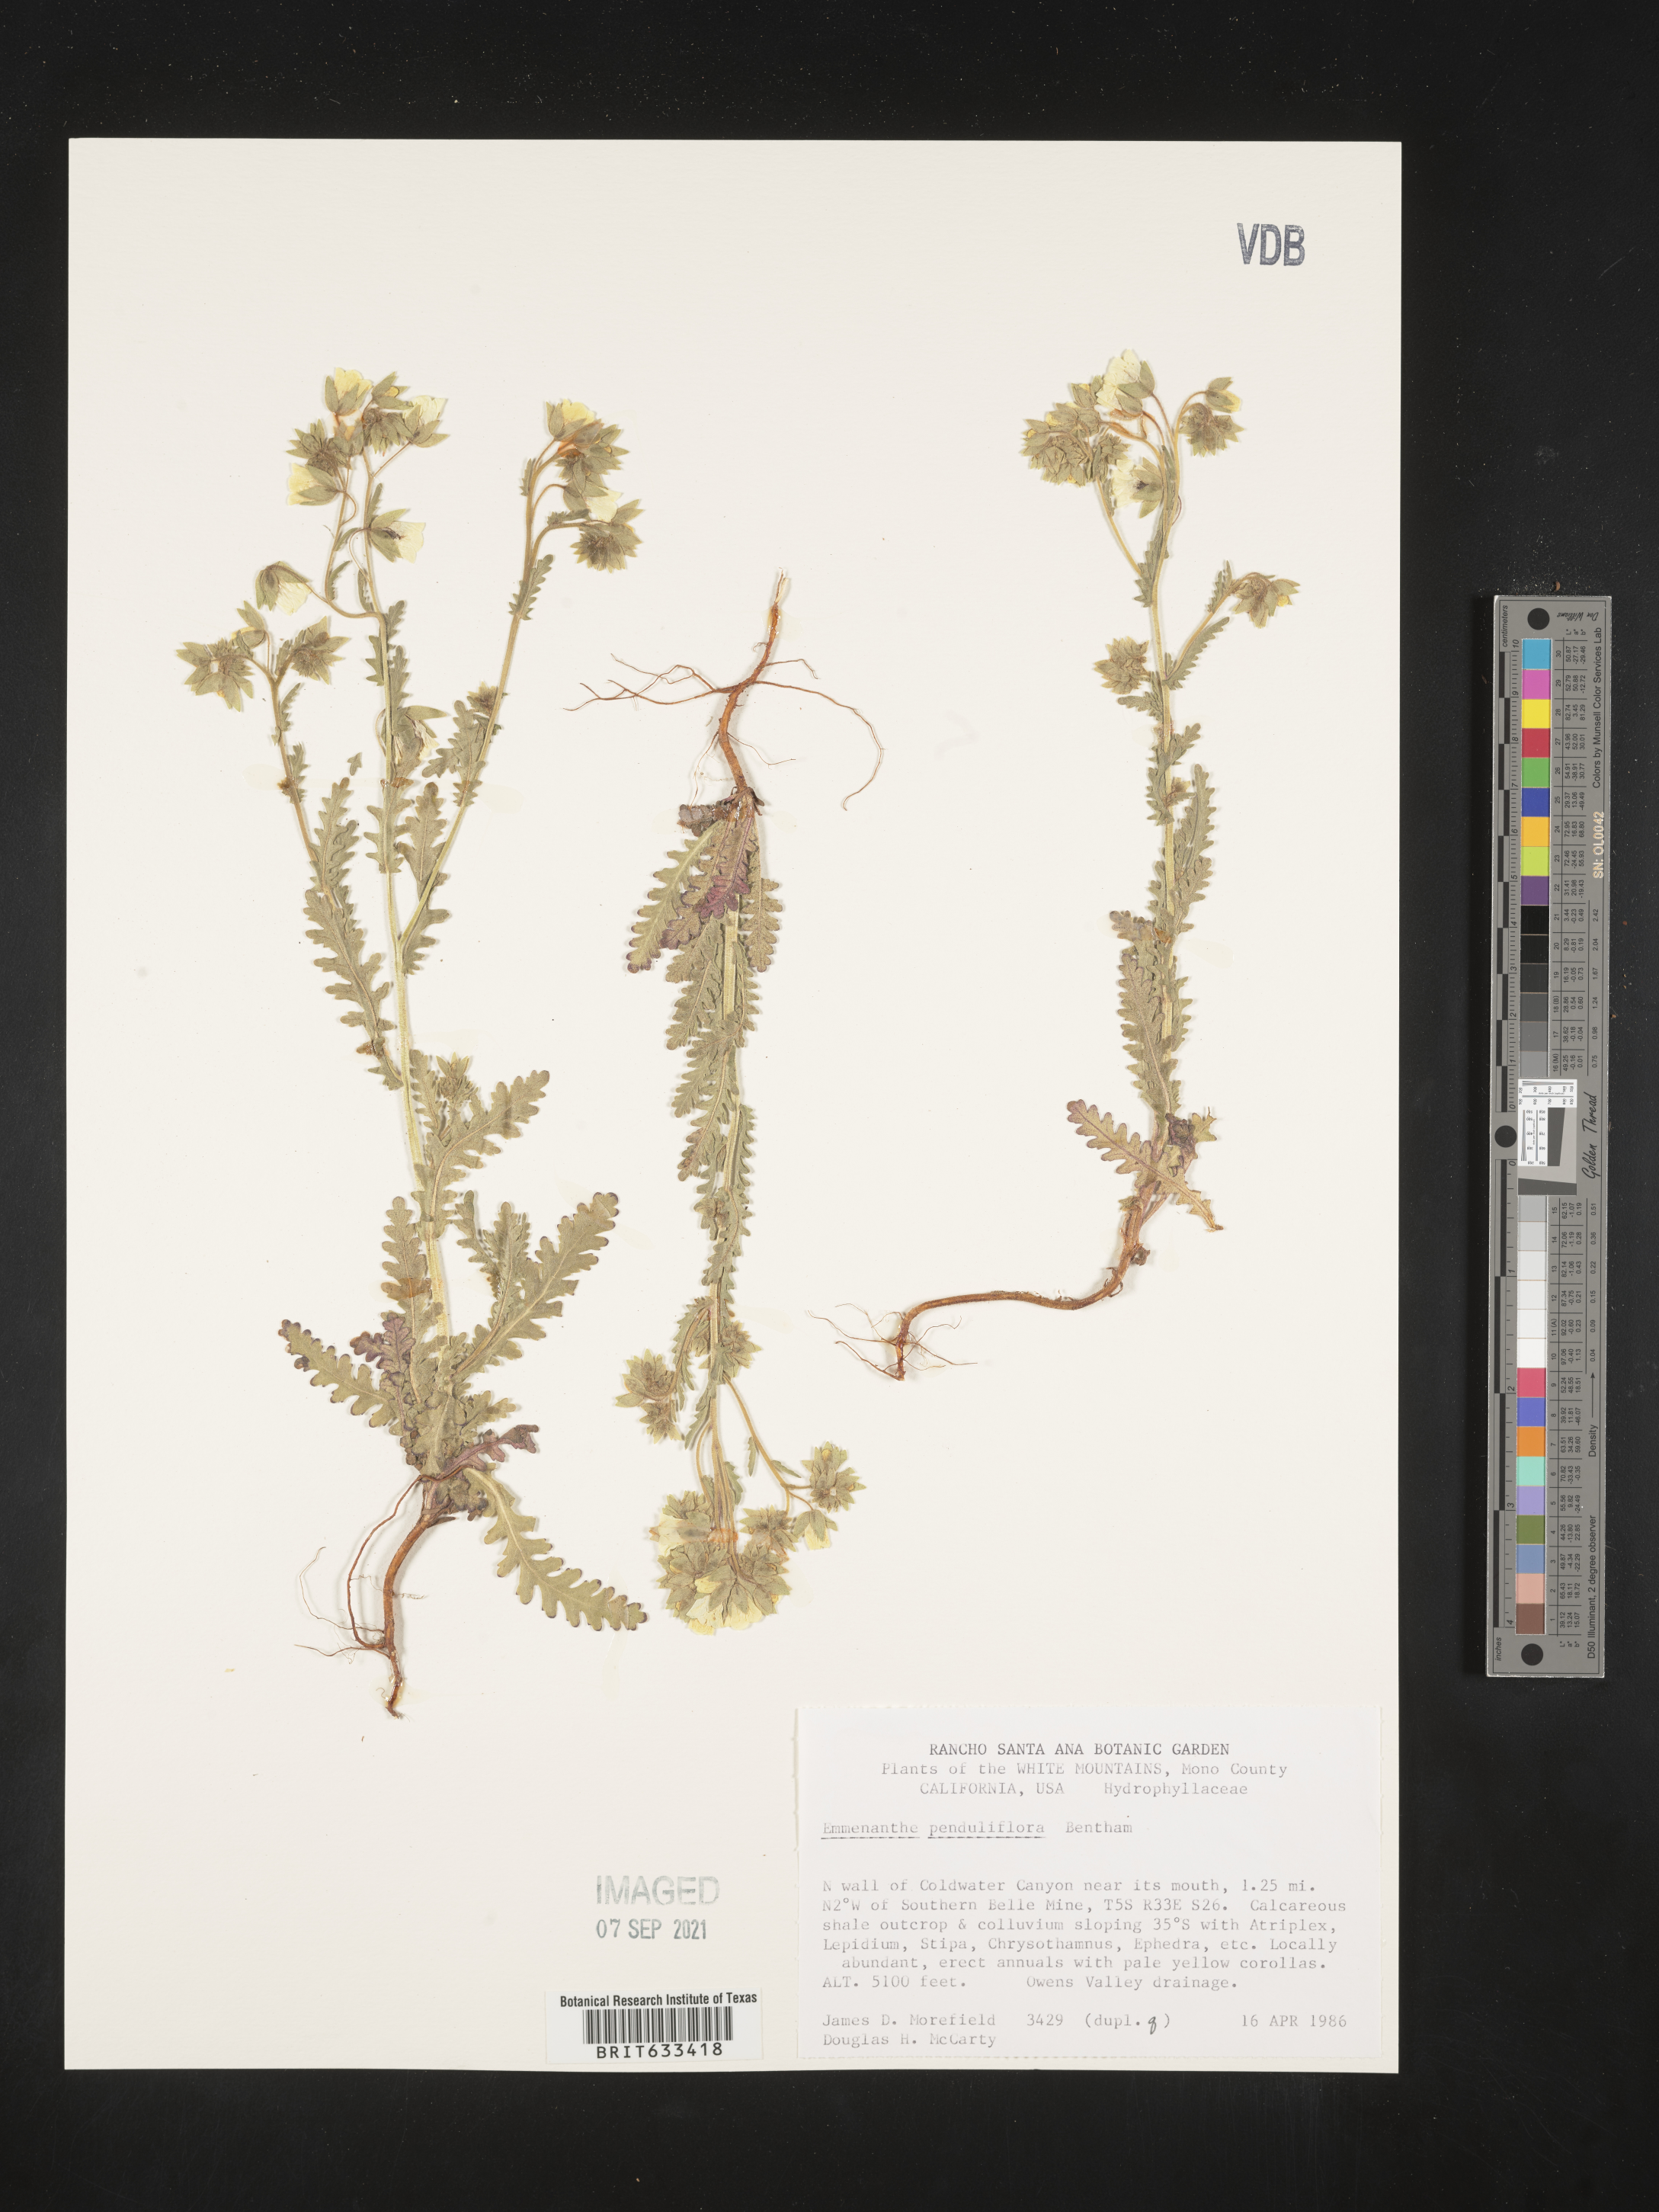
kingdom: Plantae
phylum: Tracheophyta
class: Magnoliopsida
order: Boraginales
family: Hydrophyllaceae
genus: Emmenanthe
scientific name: Emmenanthe penduliflora
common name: Whispering-bells
